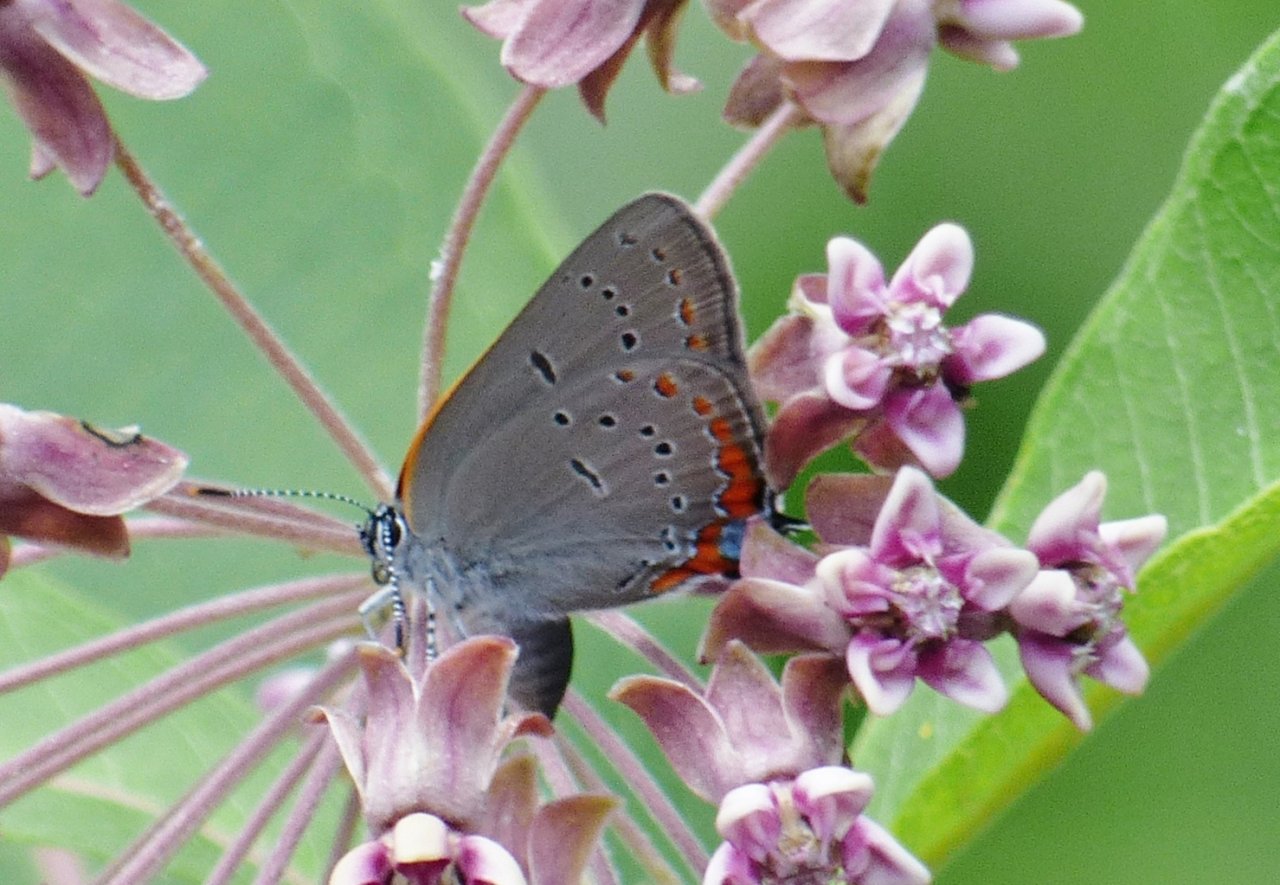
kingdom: Animalia
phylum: Arthropoda
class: Insecta
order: Lepidoptera
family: Lycaenidae
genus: Strymon
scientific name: Strymon acadica
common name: Acadian Hairstreak
